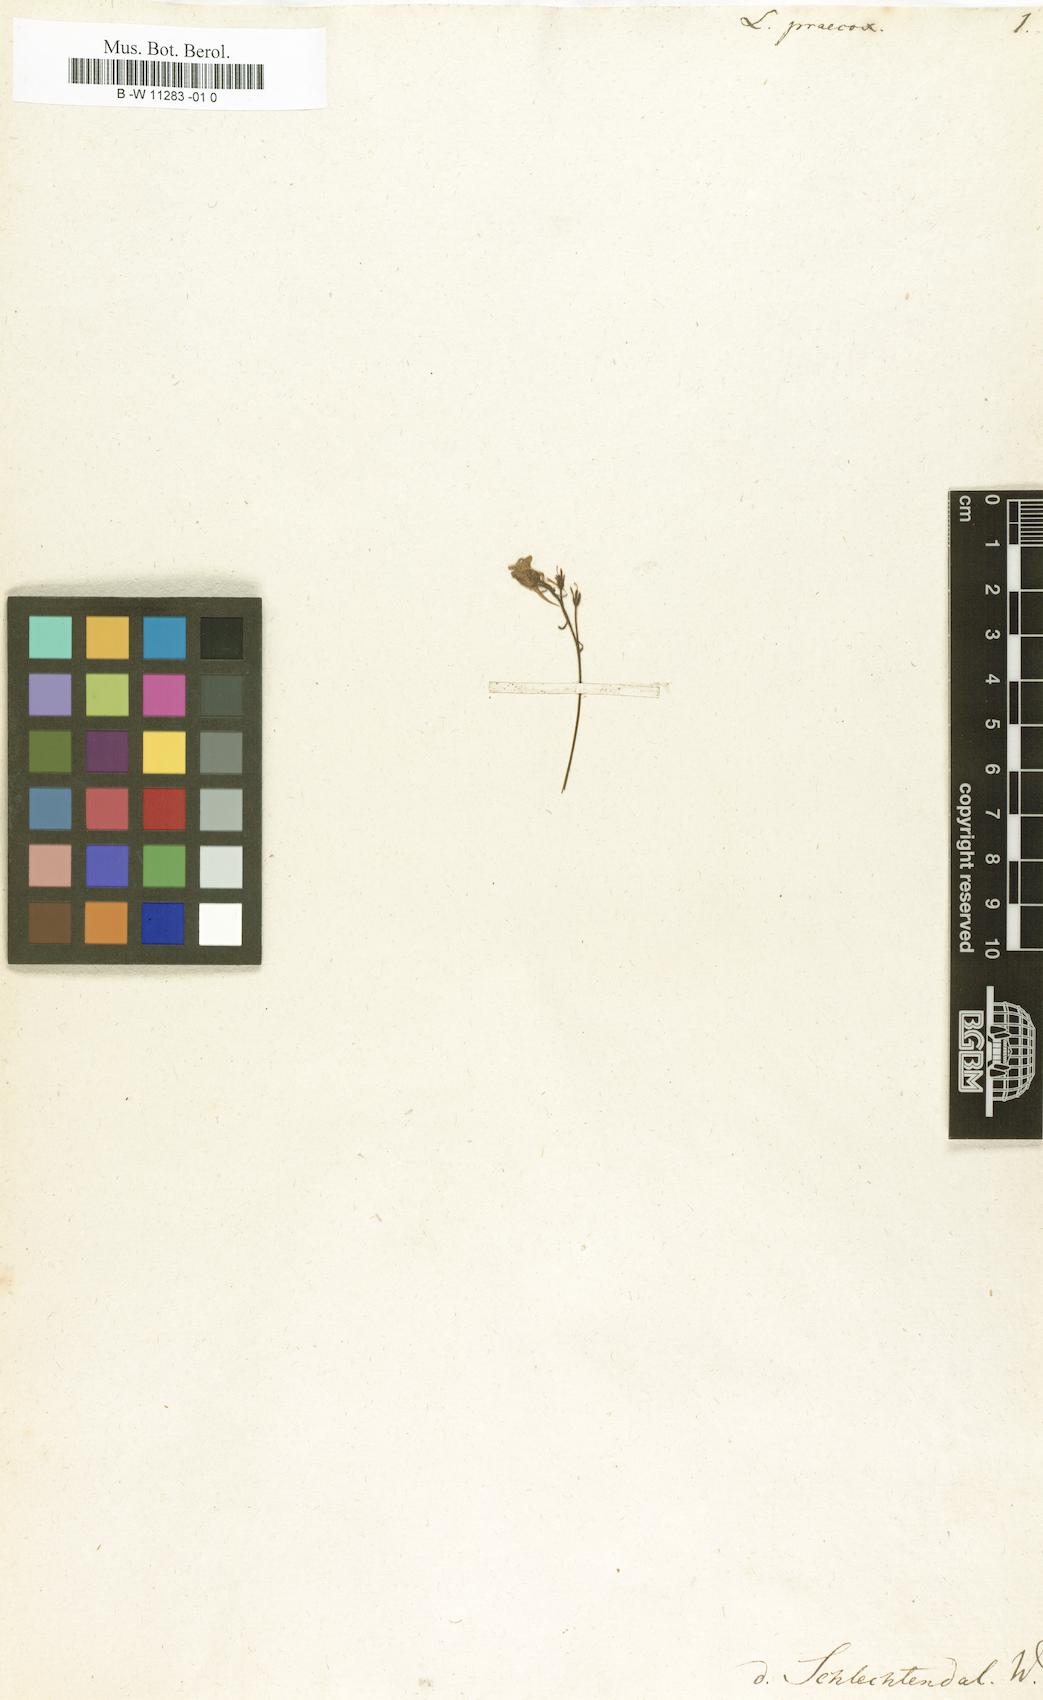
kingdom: Plantae
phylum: Tracheophyta
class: Magnoliopsida
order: Lamiales
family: Plantaginaceae
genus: Linaria
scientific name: Linaria
